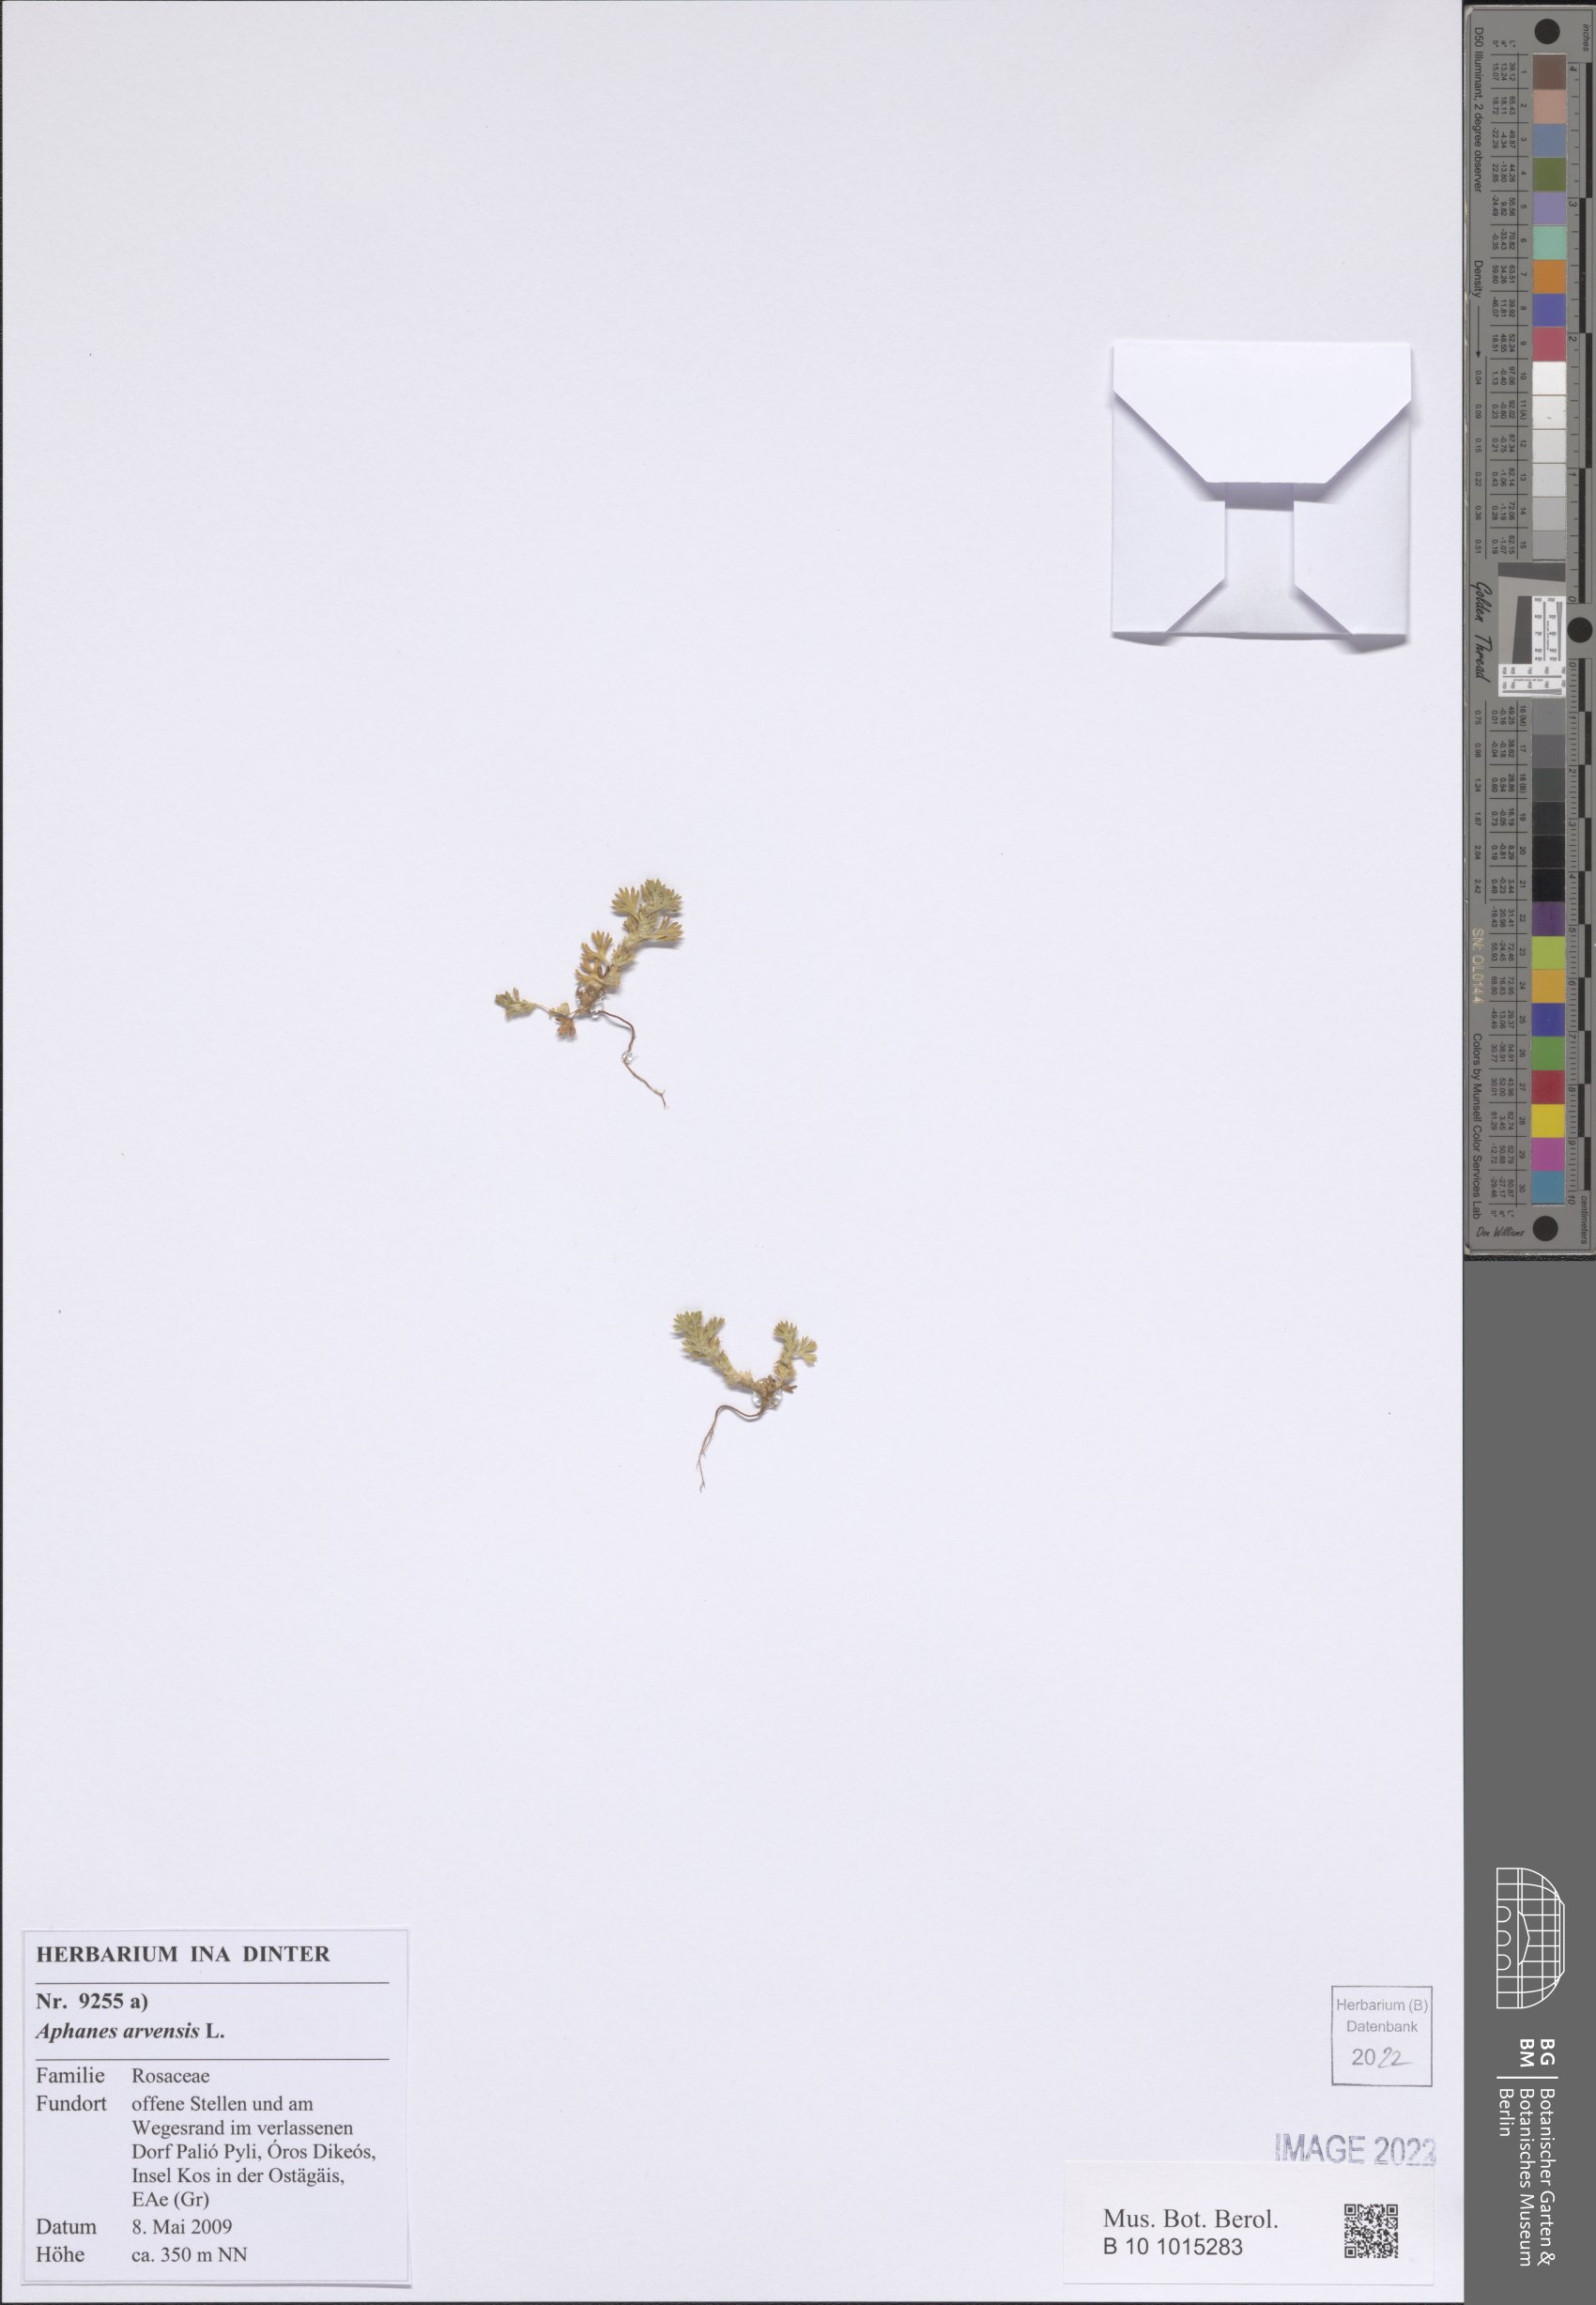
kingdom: Plantae
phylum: Tracheophyta
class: Magnoliopsida
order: Rosales
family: Rosaceae
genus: Aphanes
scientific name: Aphanes arvensis
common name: Parsley-piert
